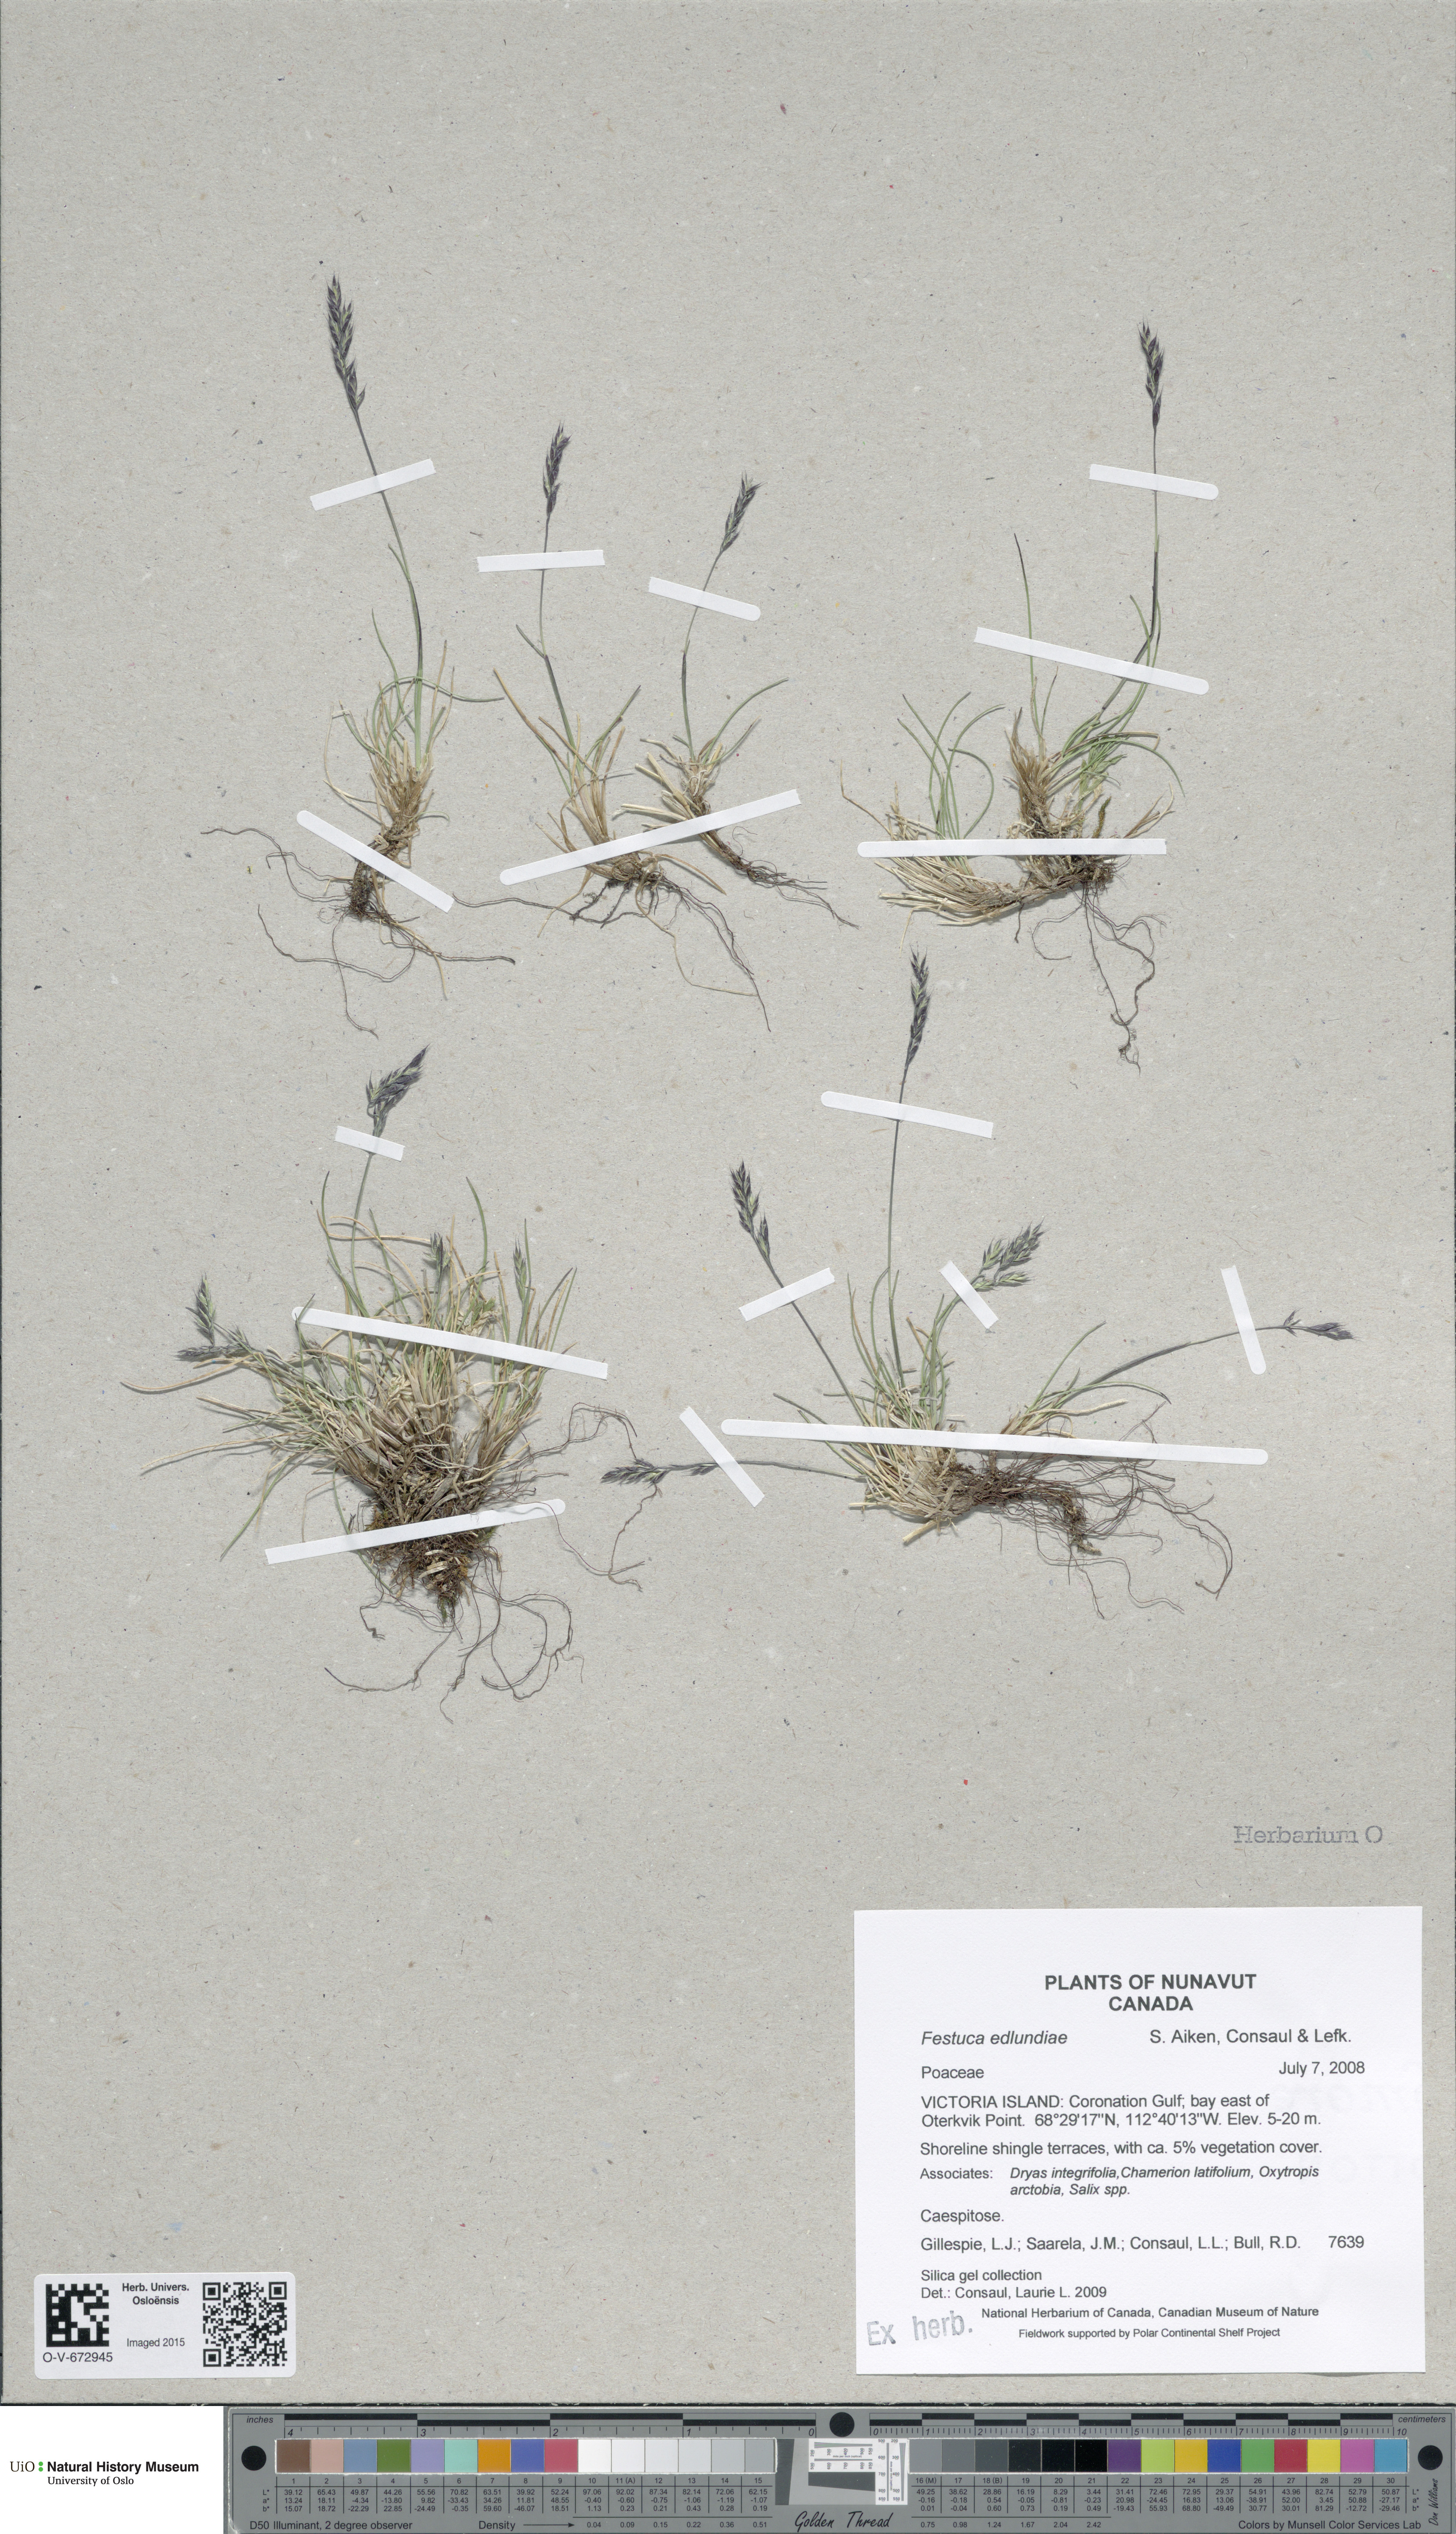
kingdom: Plantae
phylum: Tracheophyta
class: Liliopsida
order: Poales
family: Poaceae
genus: Festuca
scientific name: Festuca edlundiae
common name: Edlund's fescue
